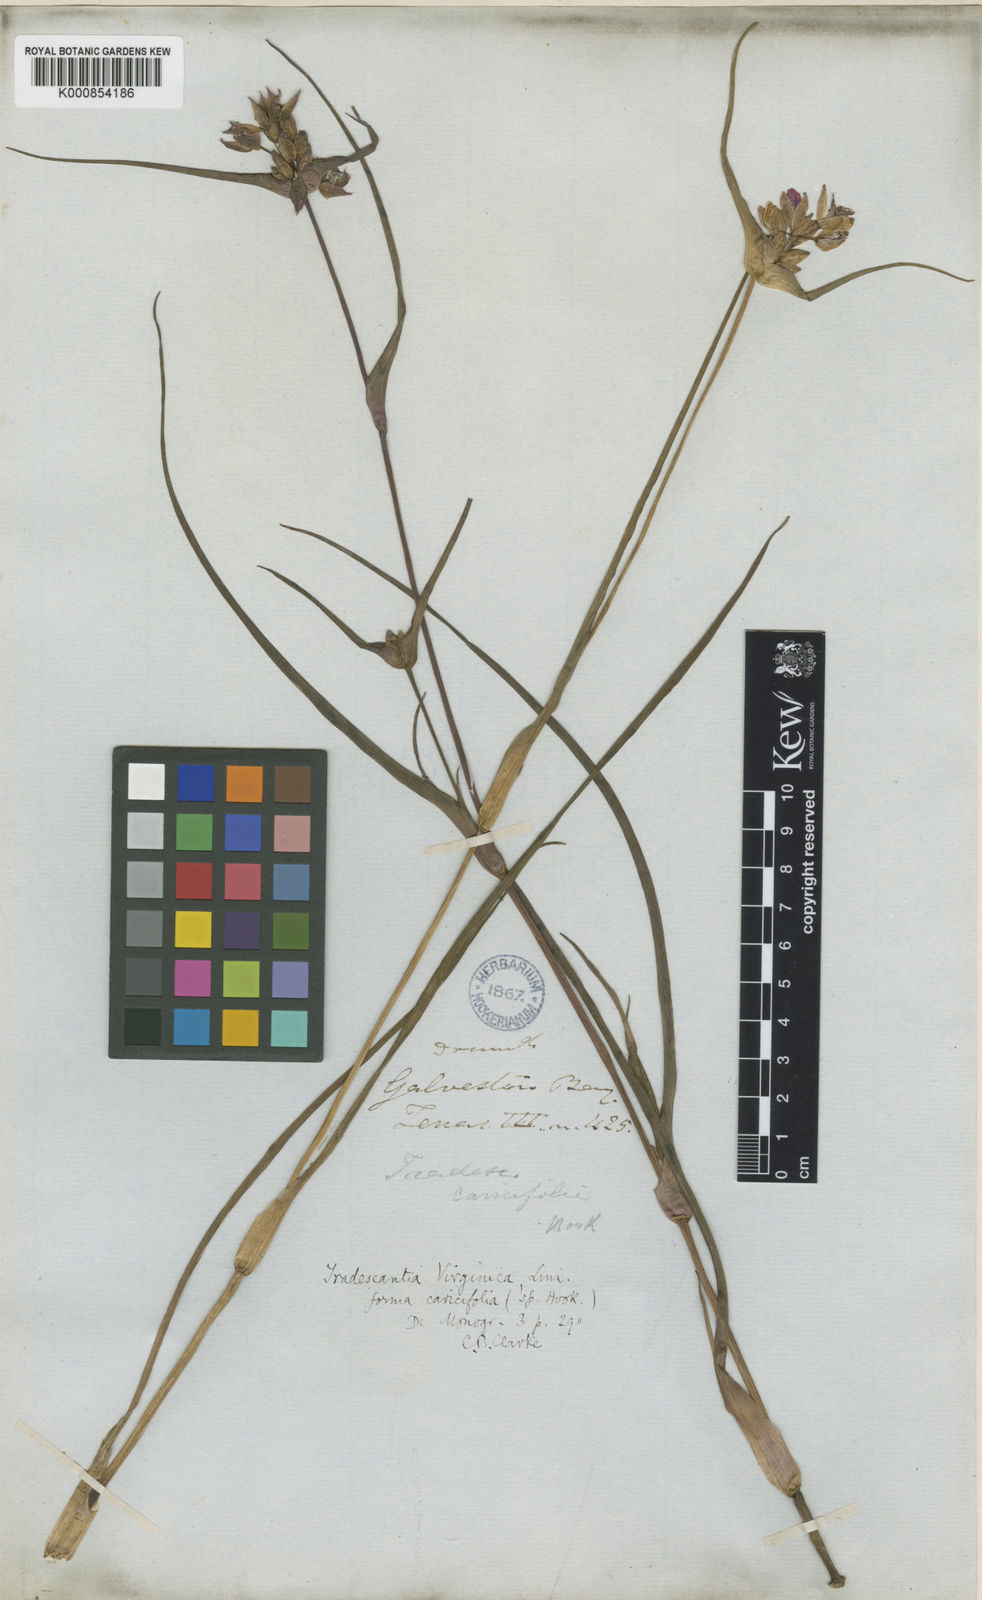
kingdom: Plantae
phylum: Tracheophyta
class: Liliopsida
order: Commelinales
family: Commelinaceae
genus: Tradescantia
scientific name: Tradescantia ohiensis
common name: Ohio spiderwort
